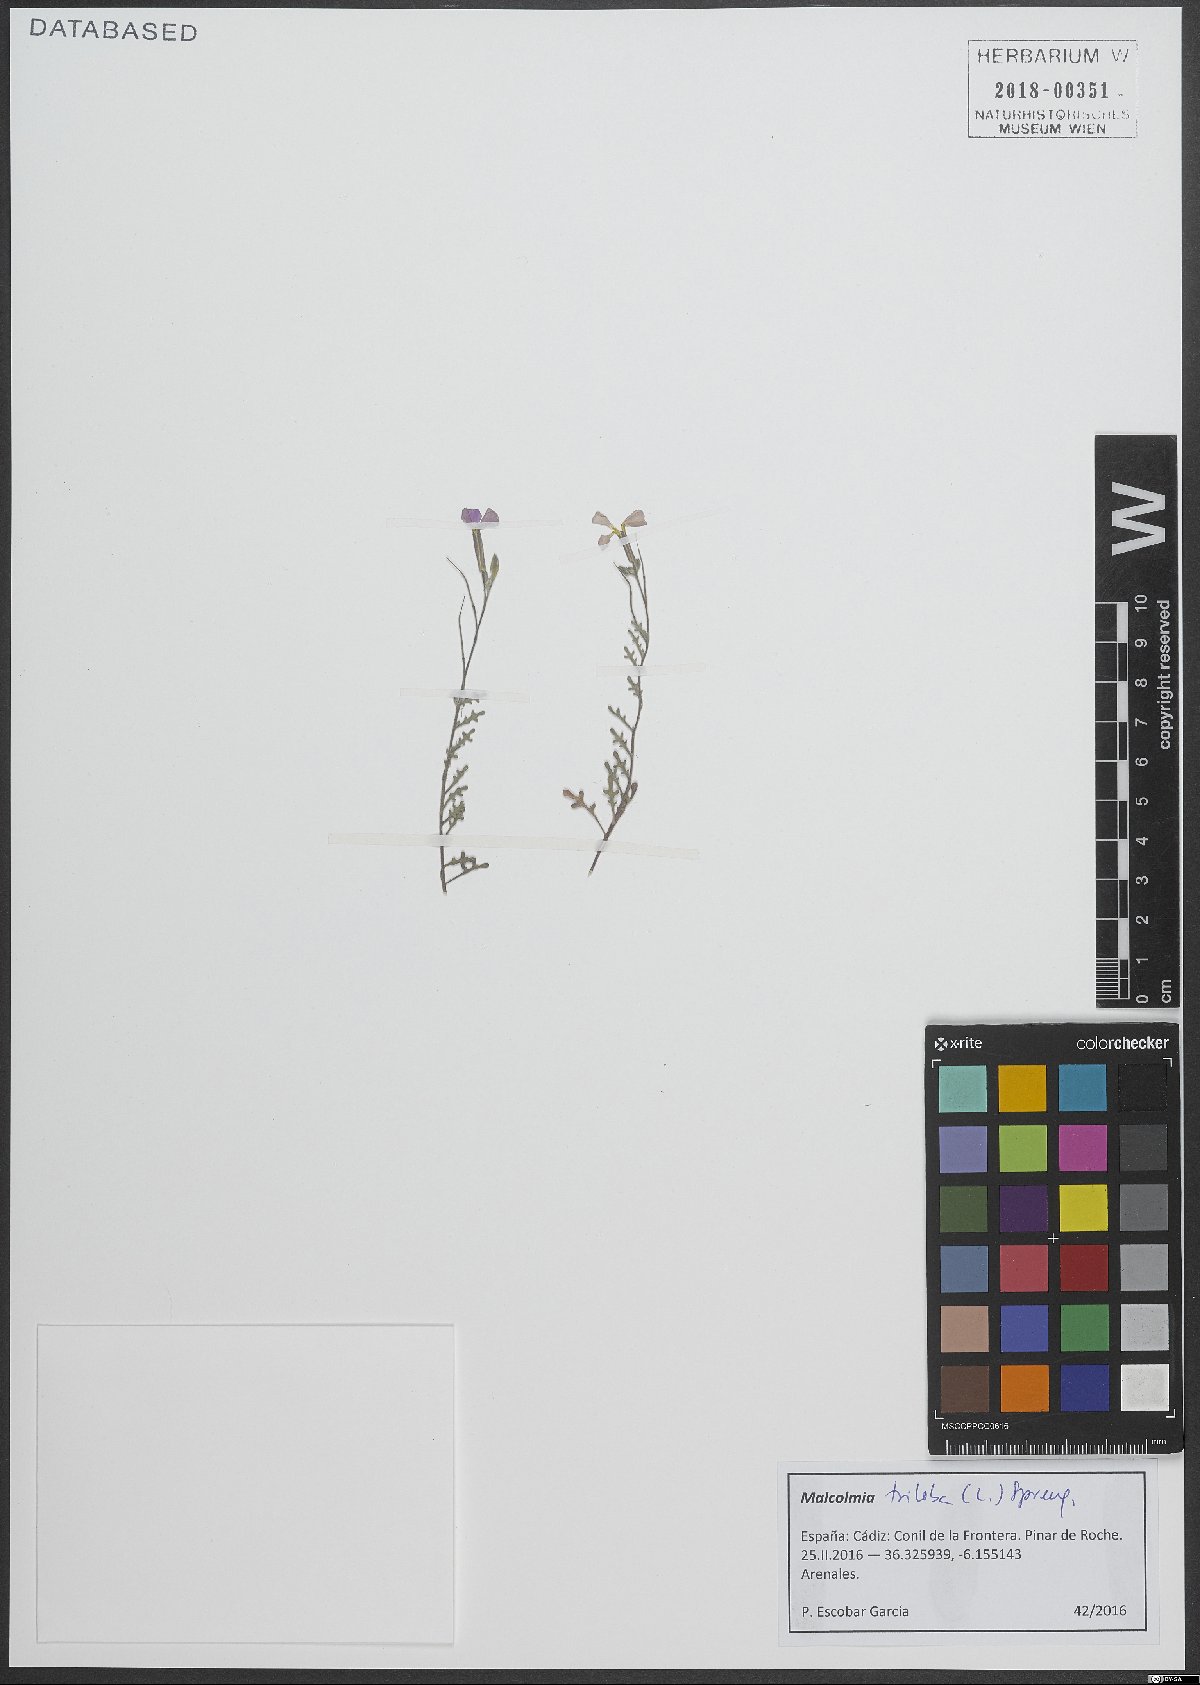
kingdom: Plantae
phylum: Tracheophyta
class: Magnoliopsida
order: Brassicales
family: Brassicaceae
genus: Marcuskochia
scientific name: Marcuskochia triloba
